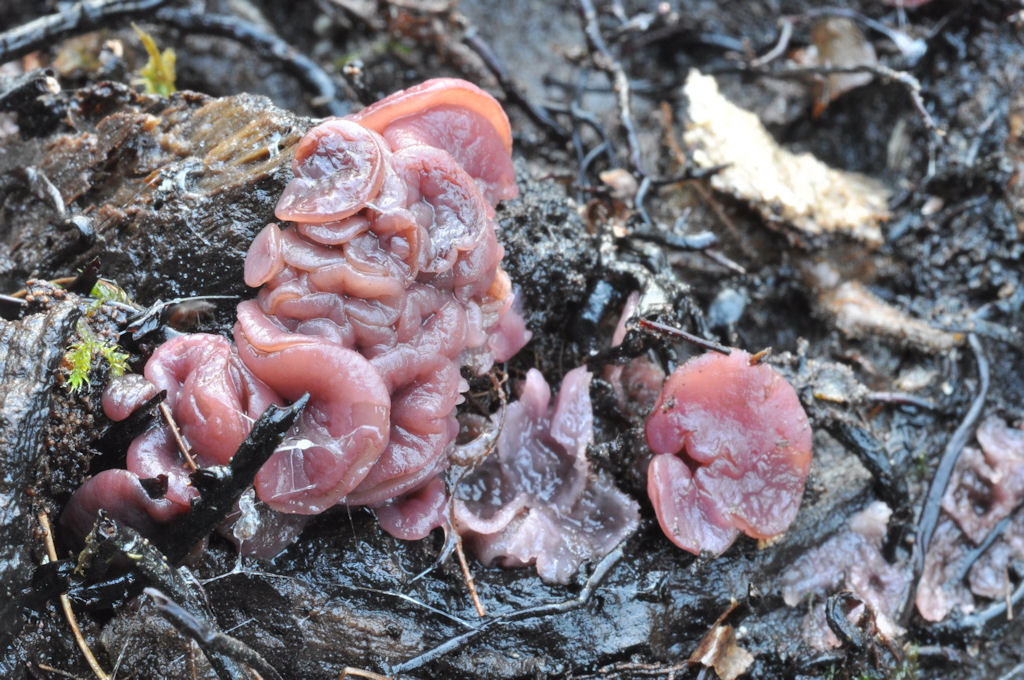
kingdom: Fungi
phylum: Ascomycota
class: Leotiomycetes
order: Helotiales
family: Gelatinodiscaceae
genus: Ascocoryne
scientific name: Ascocoryne cylichnium
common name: stor sejskive
